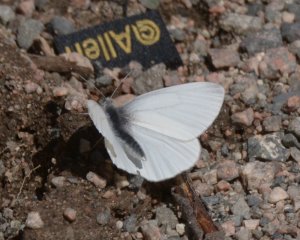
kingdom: Animalia
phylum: Arthropoda
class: Insecta
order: Lepidoptera
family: Pieridae
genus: Pieris
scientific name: Pieris virginiensis
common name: West Virginia White
